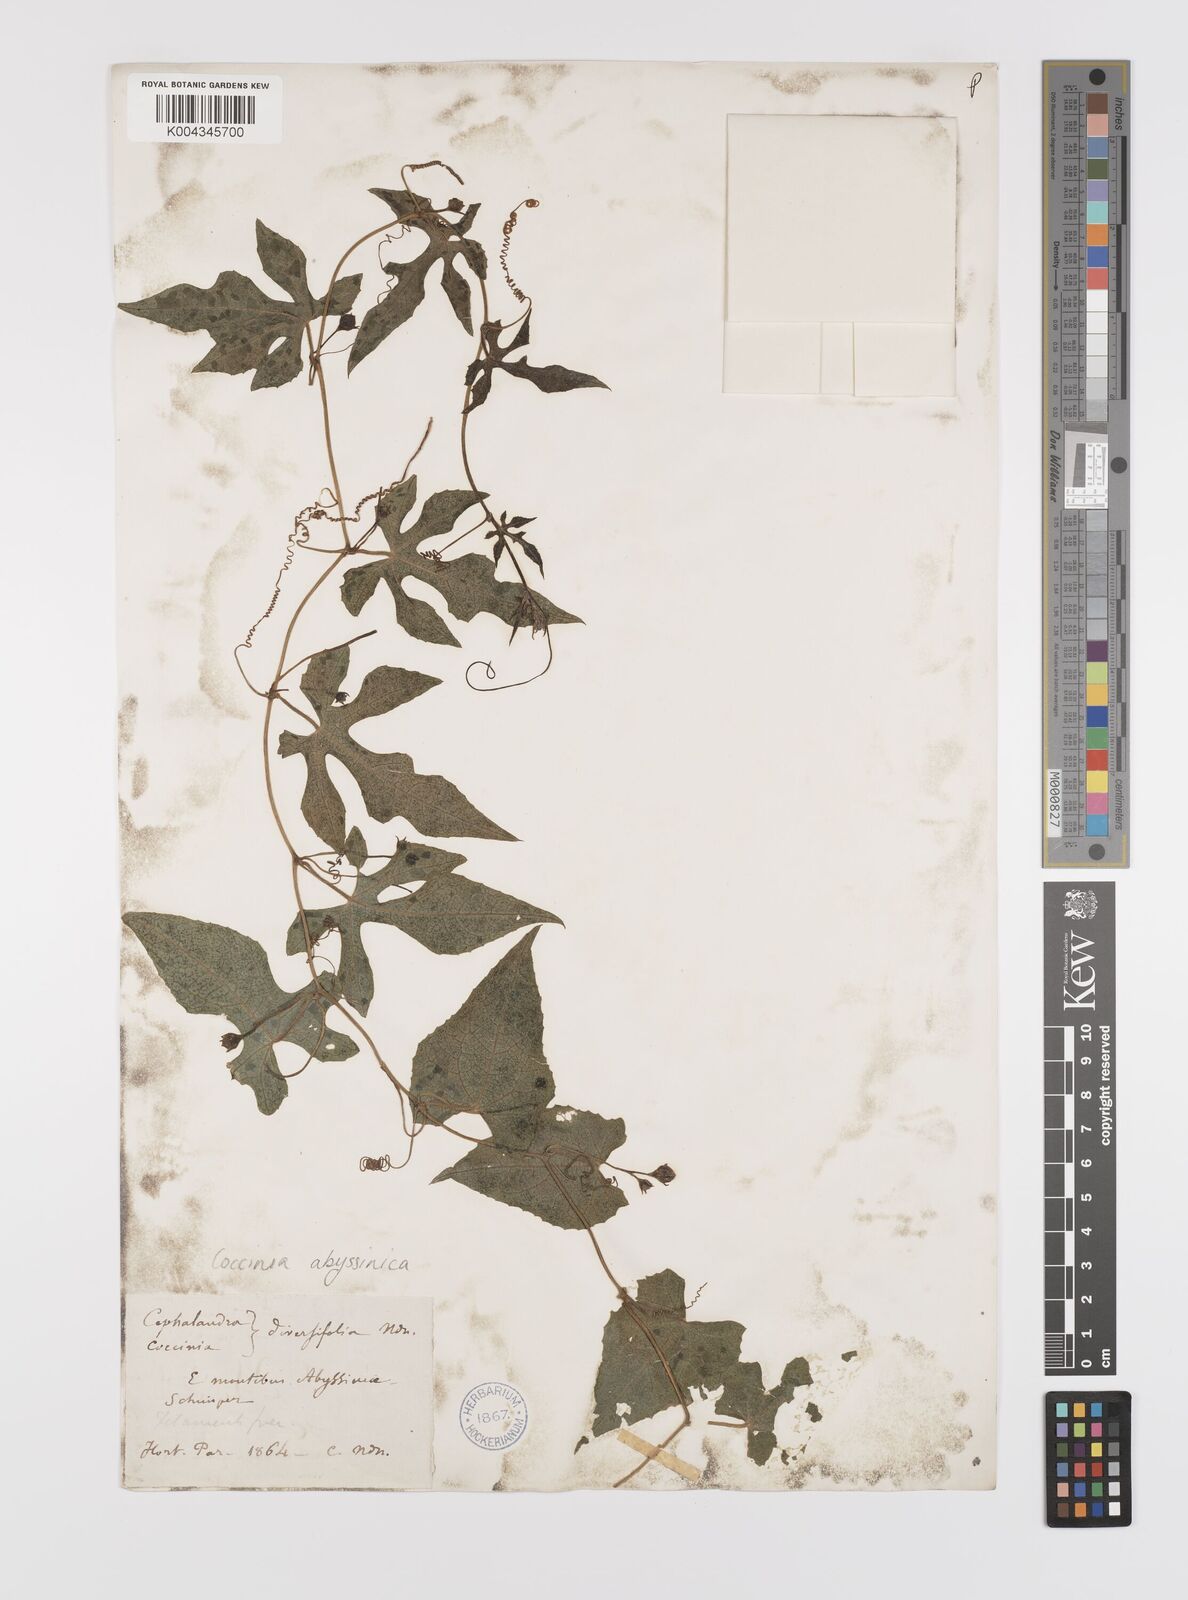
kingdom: Plantae
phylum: Tracheophyta
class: Magnoliopsida
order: Cucurbitales
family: Cucurbitaceae
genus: Coccinia
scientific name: Coccinia abyssinica
